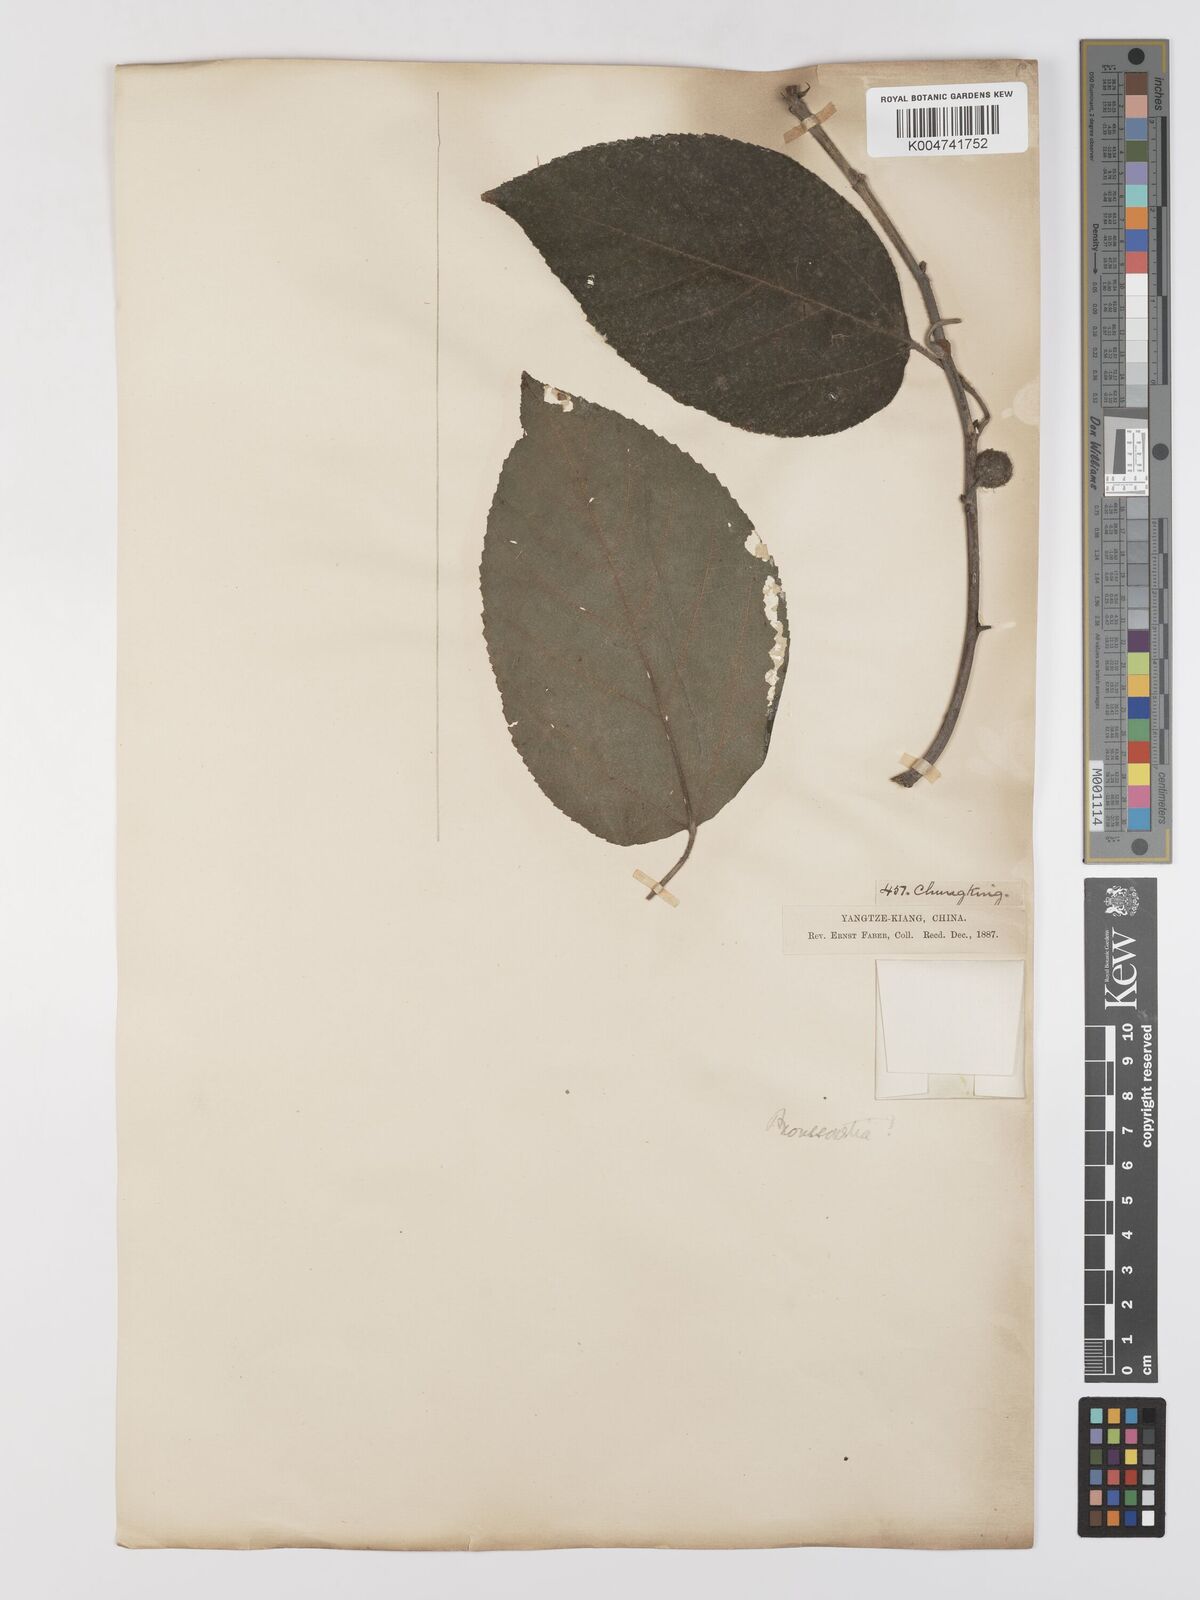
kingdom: Plantae
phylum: Tracheophyta
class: Magnoliopsida
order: Rosales
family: Moraceae
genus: Broussonetia
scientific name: Broussonetia
